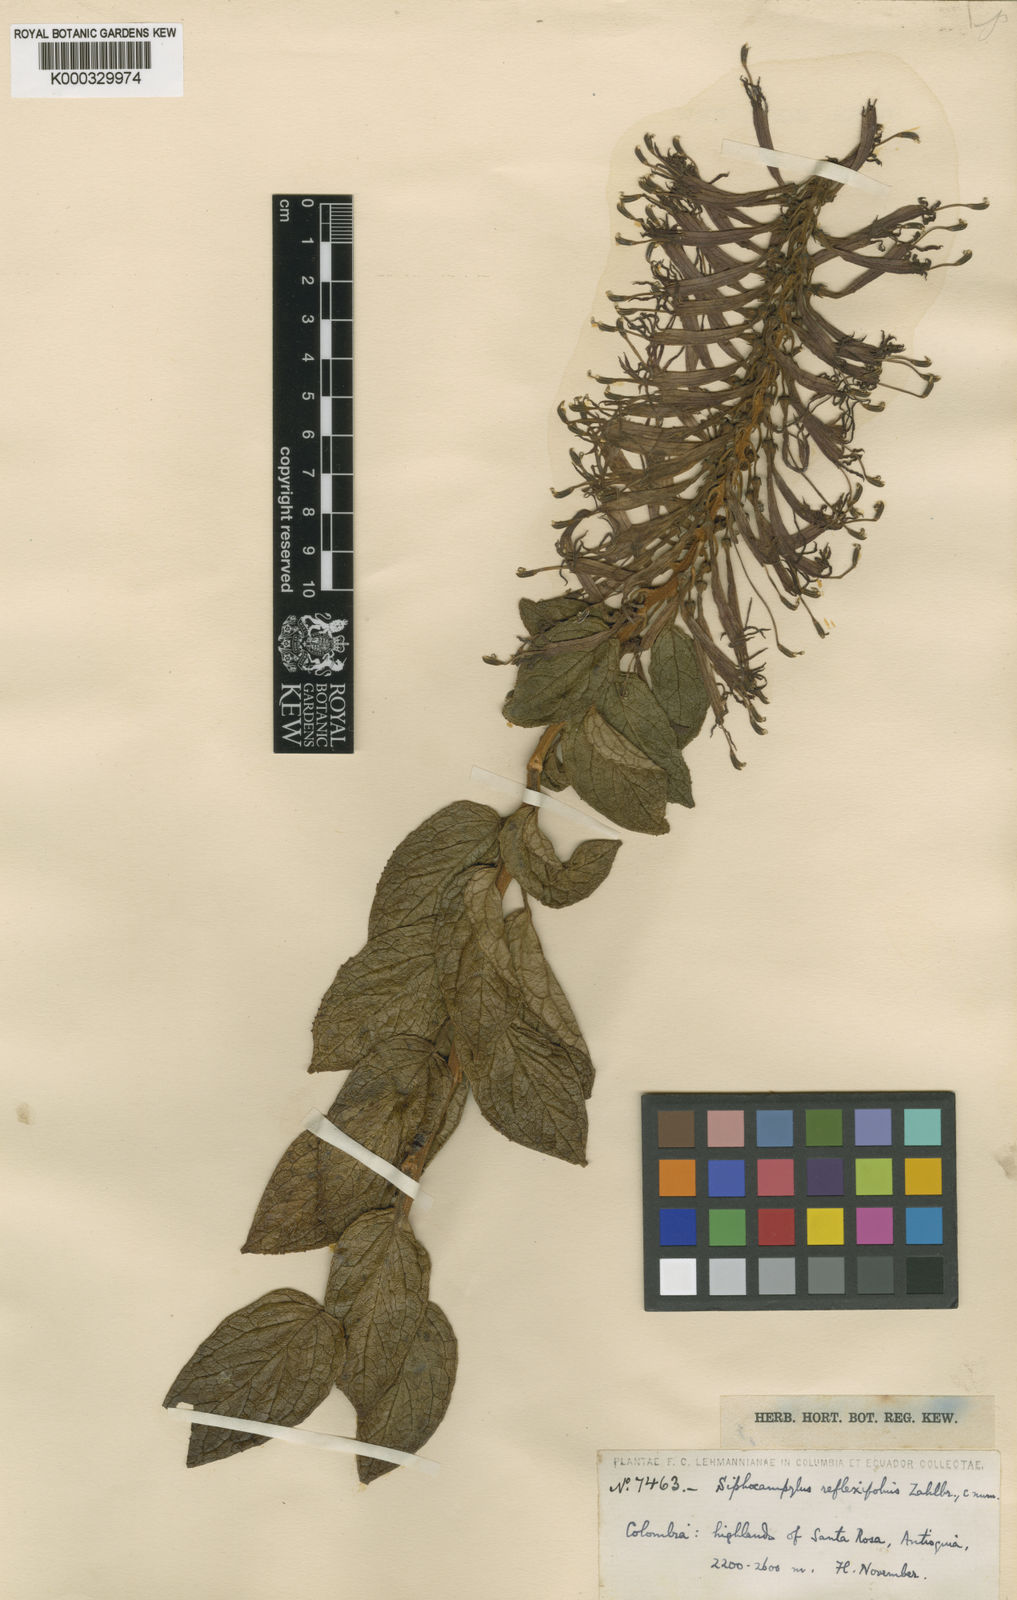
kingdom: Plantae
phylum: Tracheophyta
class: Magnoliopsida
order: Asterales
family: Campanulaceae
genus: Siphocampylus
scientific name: Siphocampylus retrorsus
